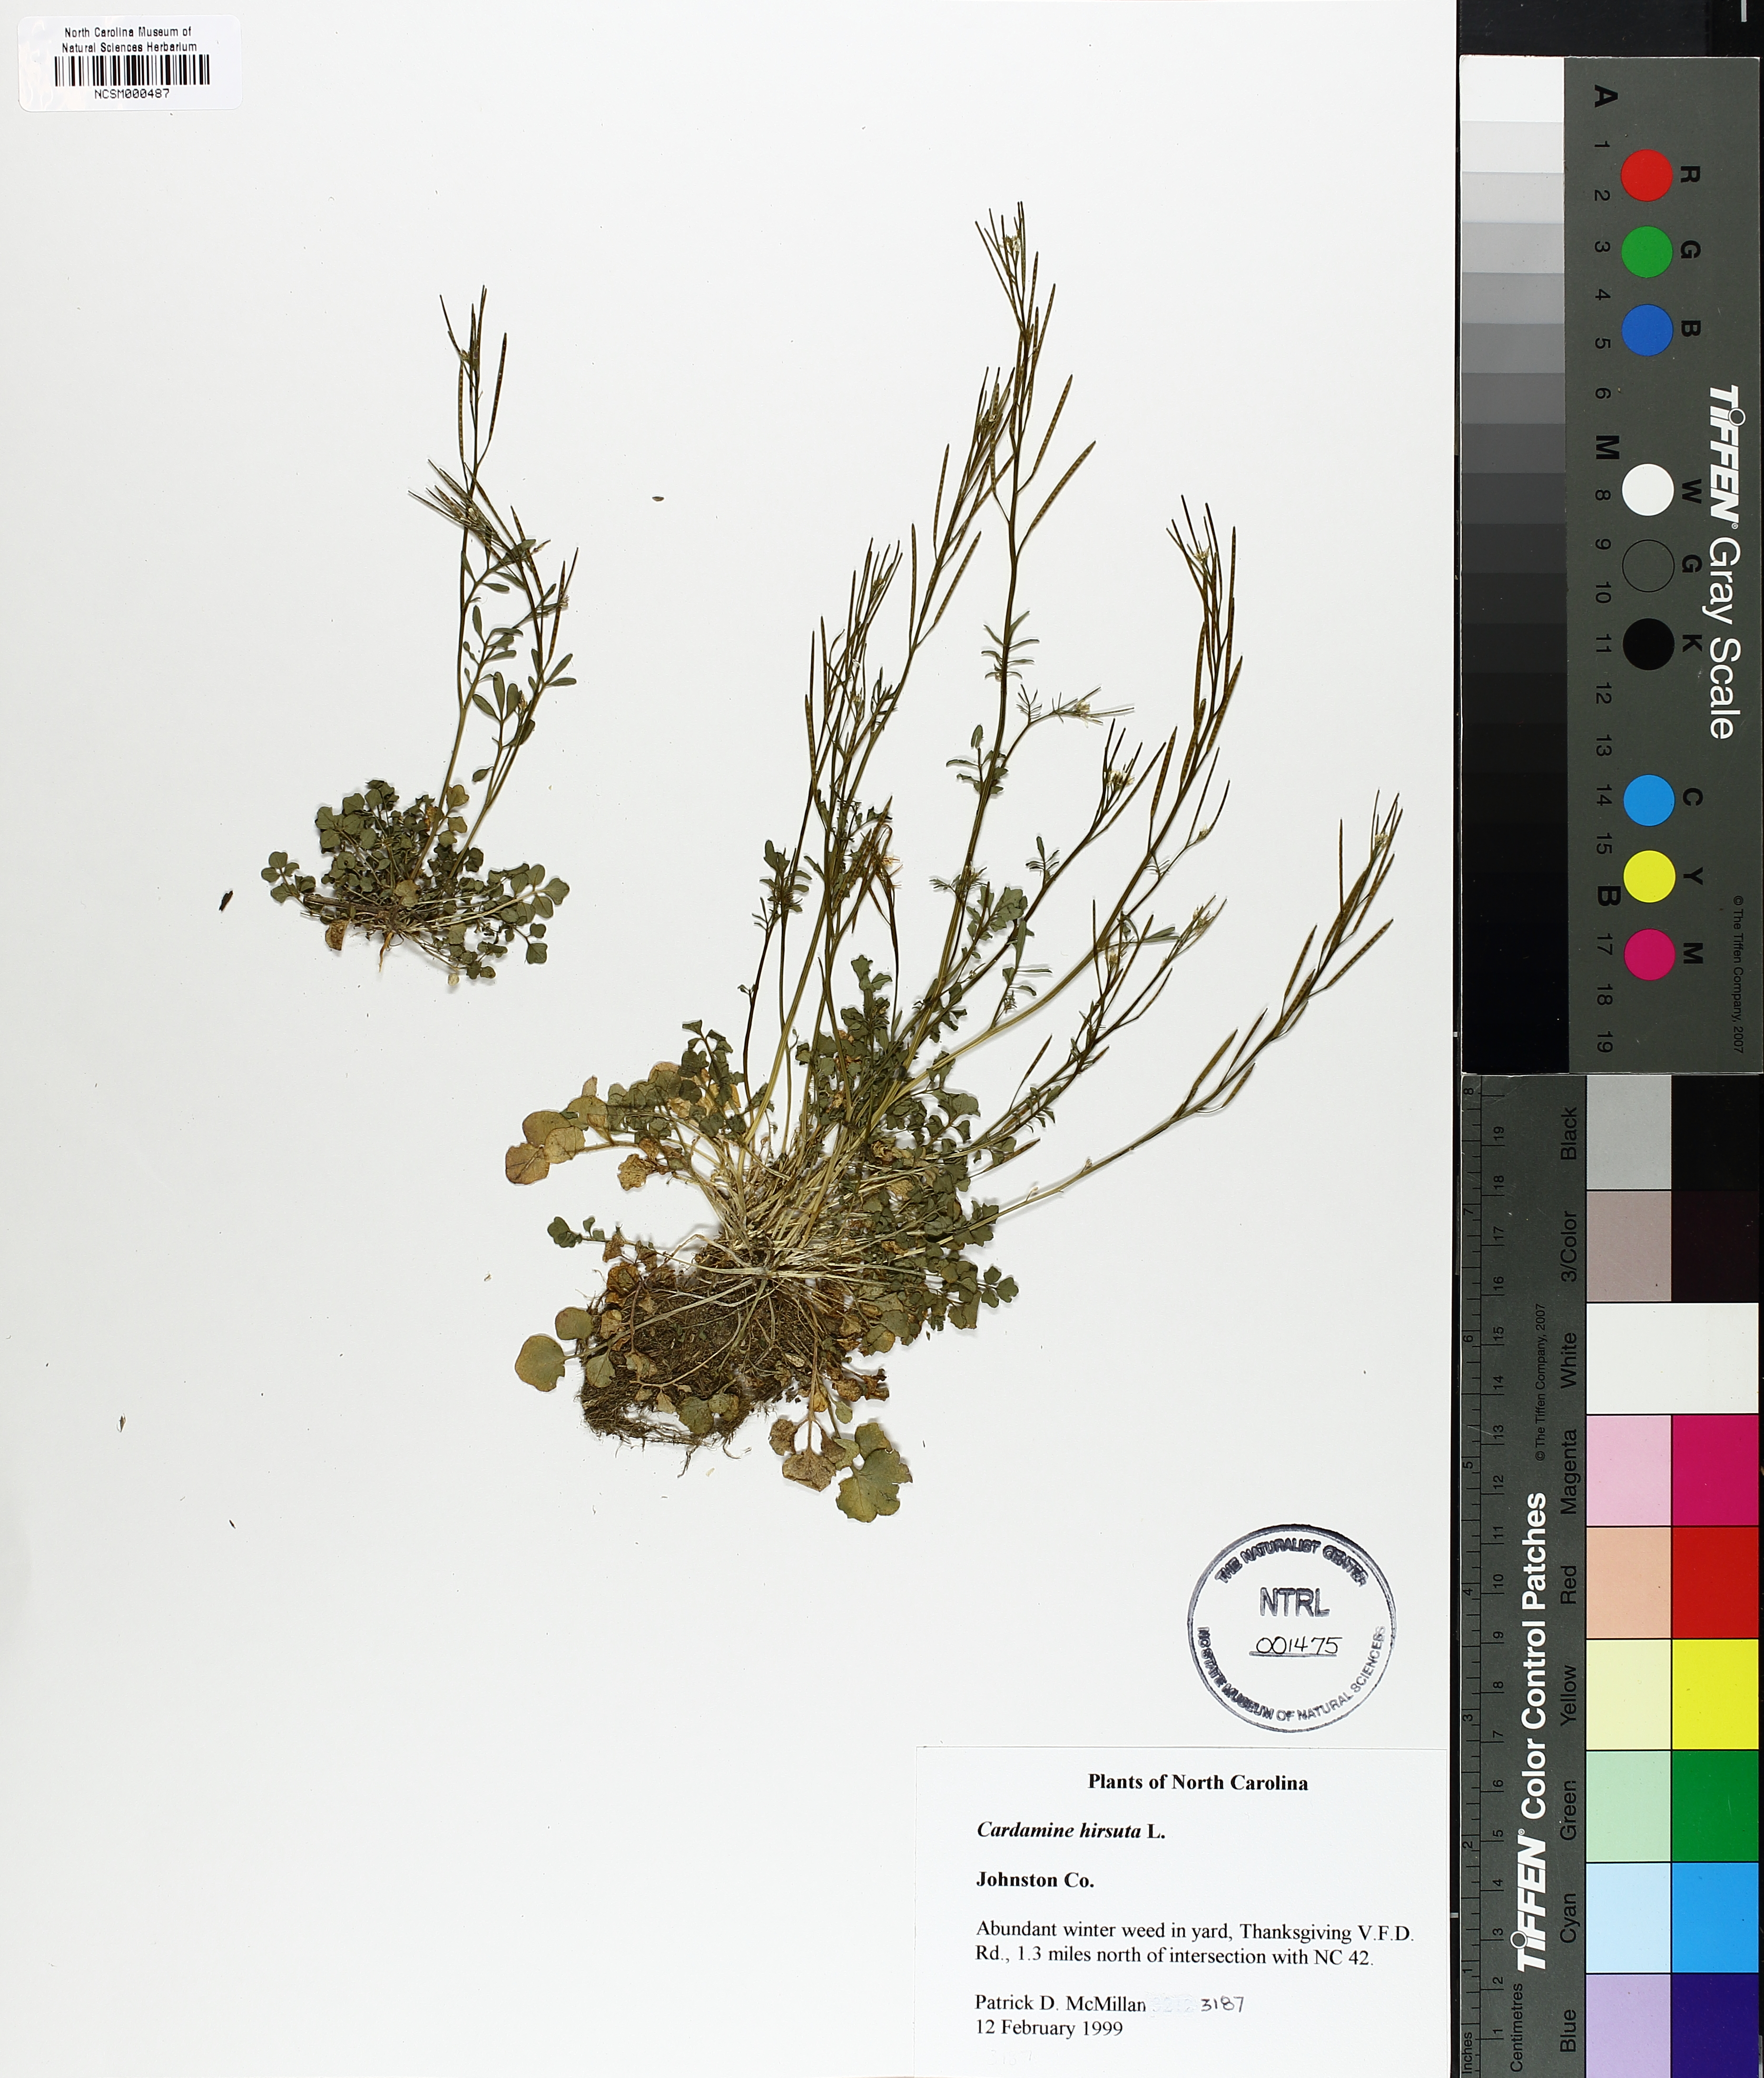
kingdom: Plantae
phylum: Tracheophyta
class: Magnoliopsida
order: Brassicales
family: Brassicaceae
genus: Cardamine
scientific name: Cardamine hirsuta
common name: Hairy bittercress
